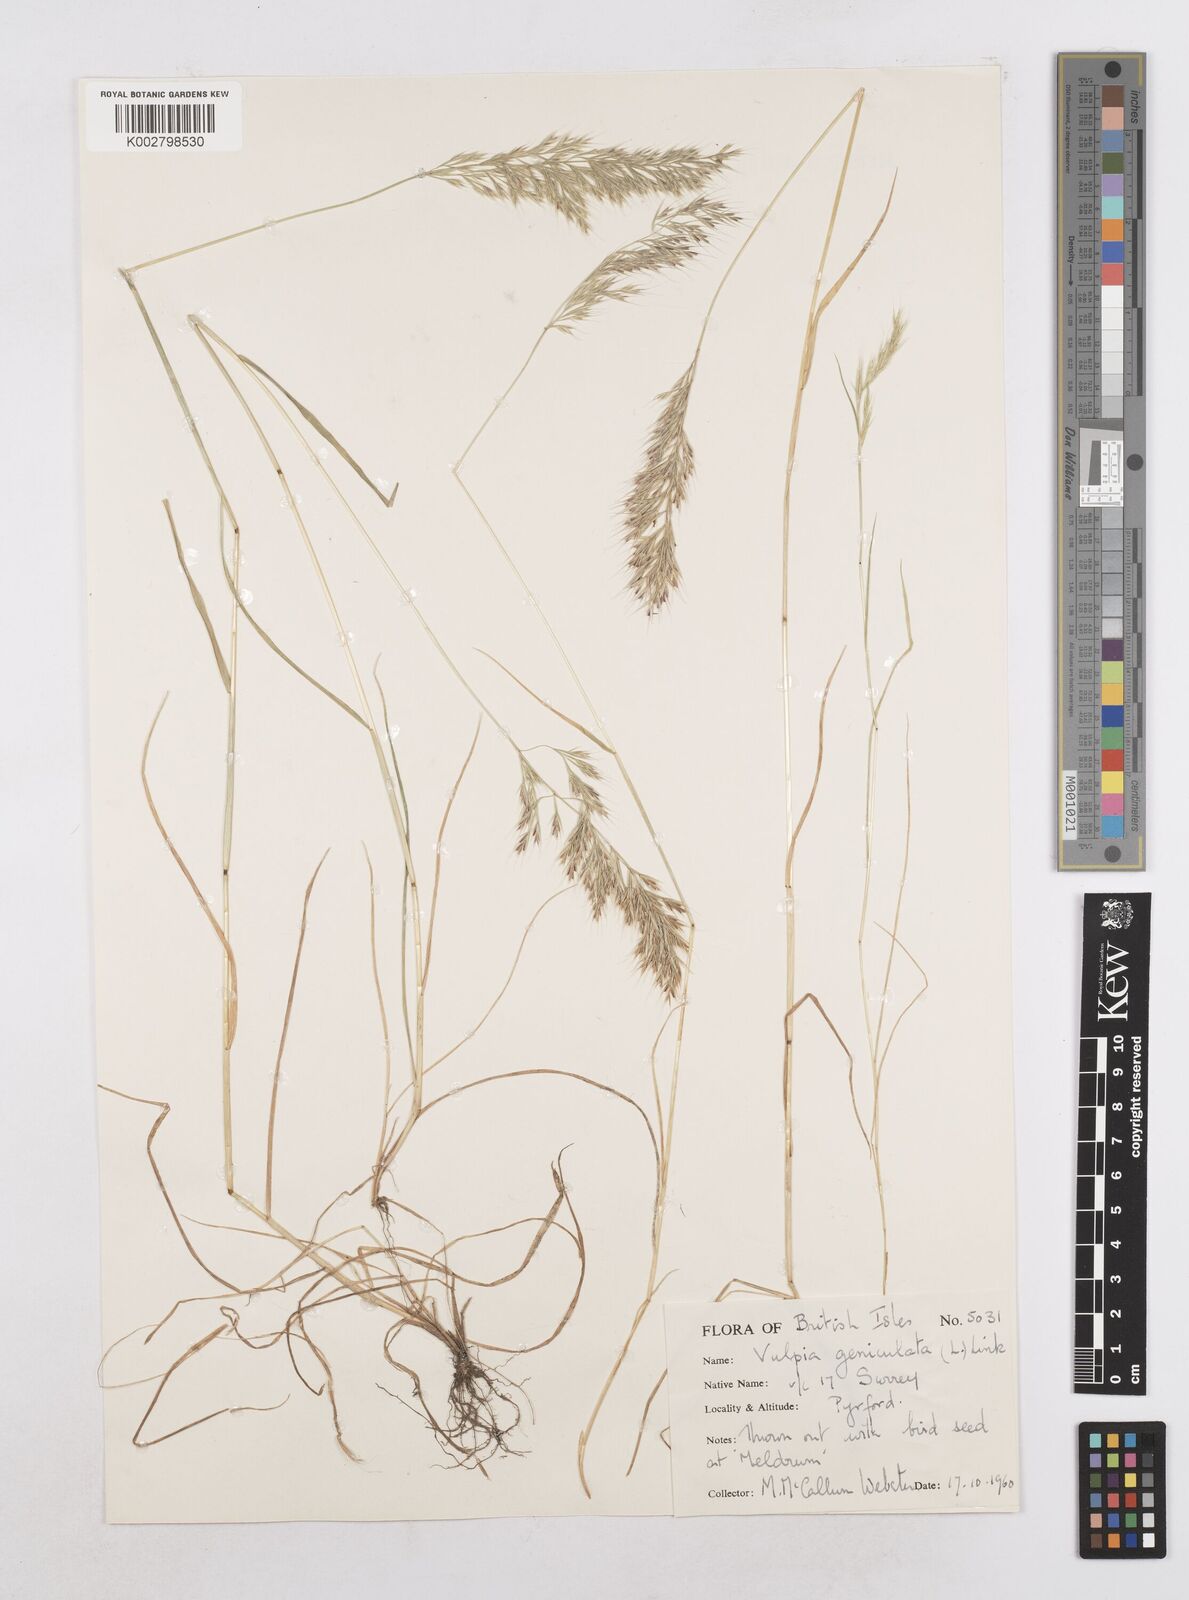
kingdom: Plantae
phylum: Tracheophyta
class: Liliopsida
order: Poales
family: Poaceae
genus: Festuca
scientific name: Festuca geniculata
